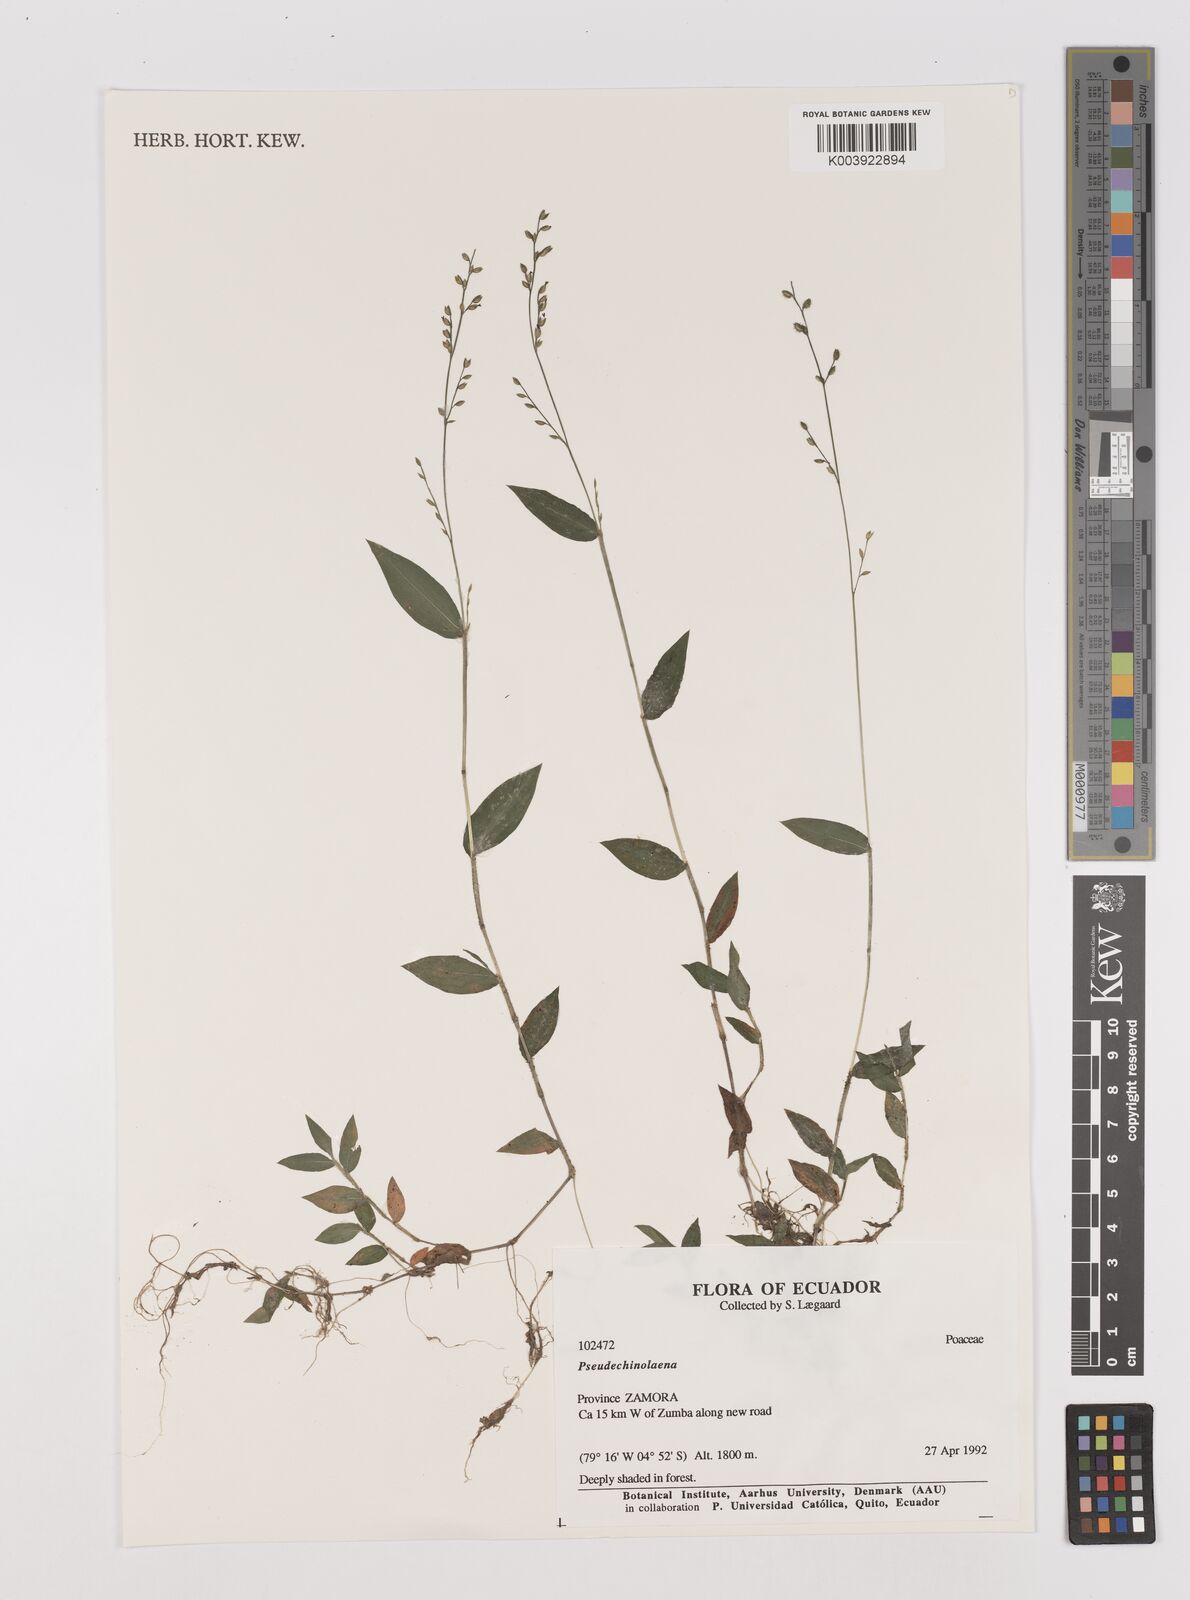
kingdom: Plantae
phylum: Tracheophyta
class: Liliopsida
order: Poales
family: Poaceae
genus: Pseudechinolaena
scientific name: Pseudechinolaena polystachya
